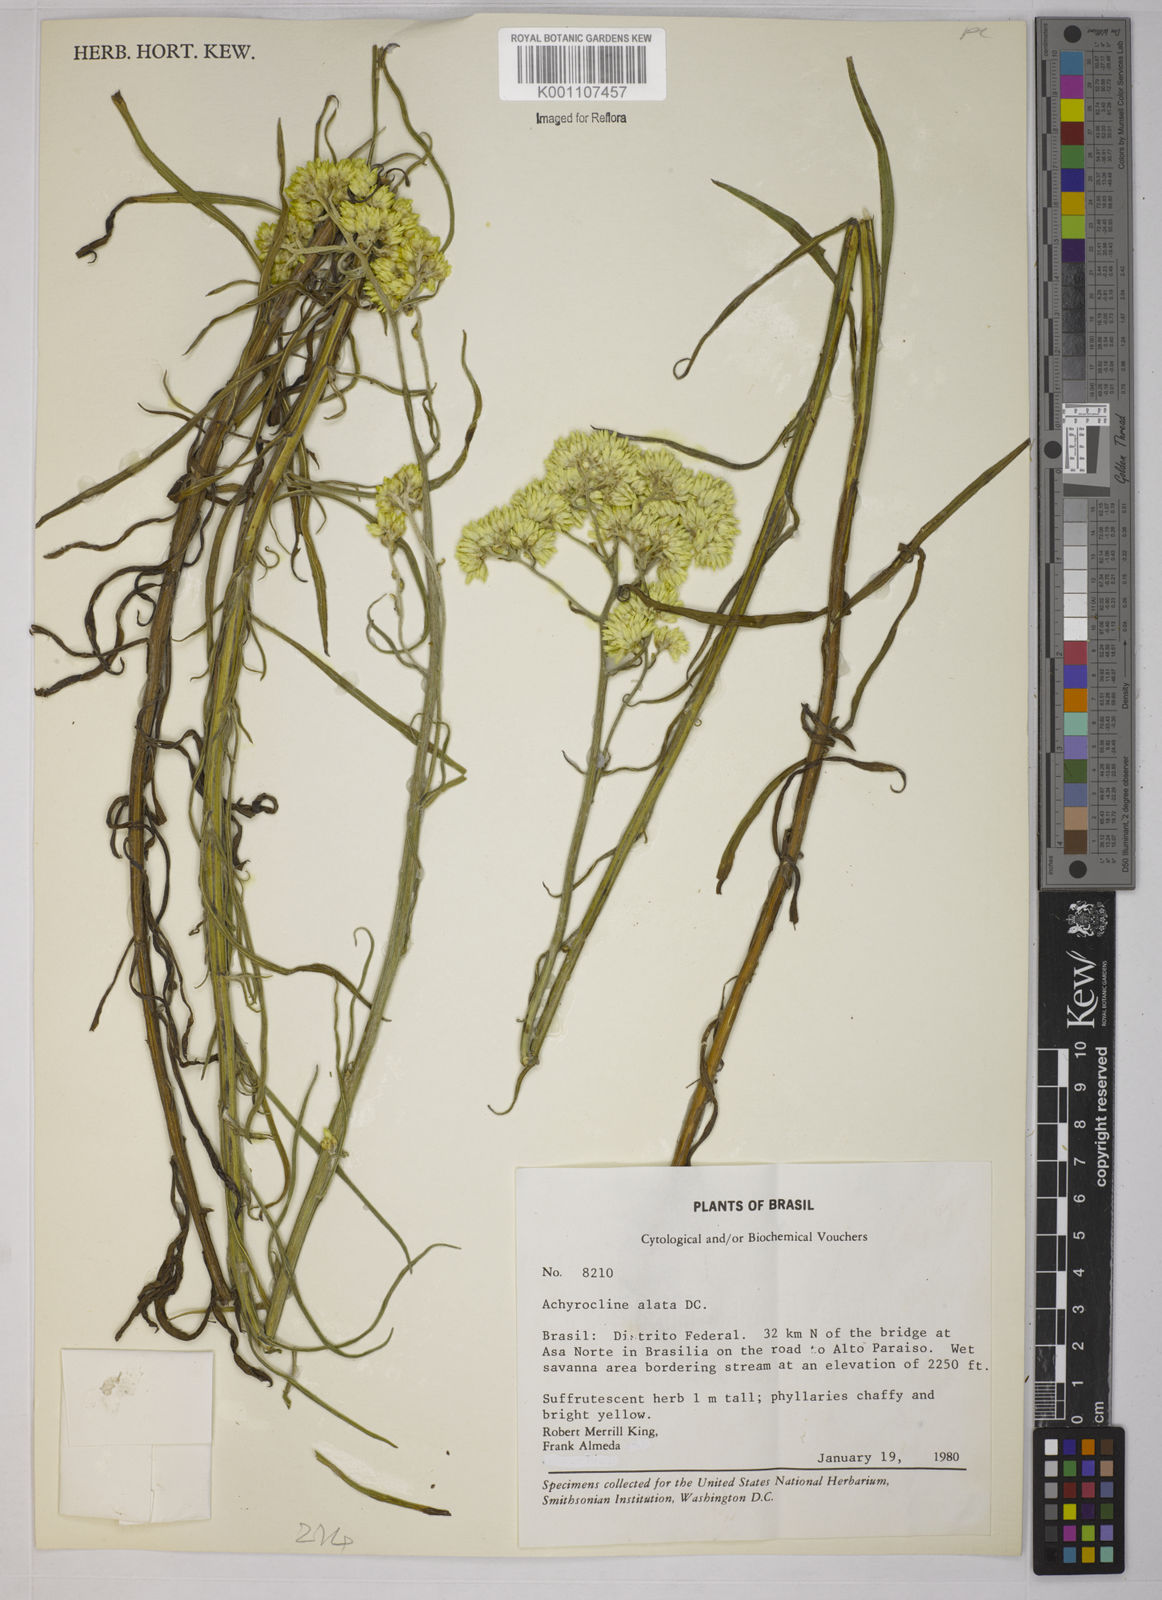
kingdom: Plantae
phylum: Tracheophyta
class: Magnoliopsida
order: Asterales
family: Asteraceae
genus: Achyrocline
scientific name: Achyrocline alata
